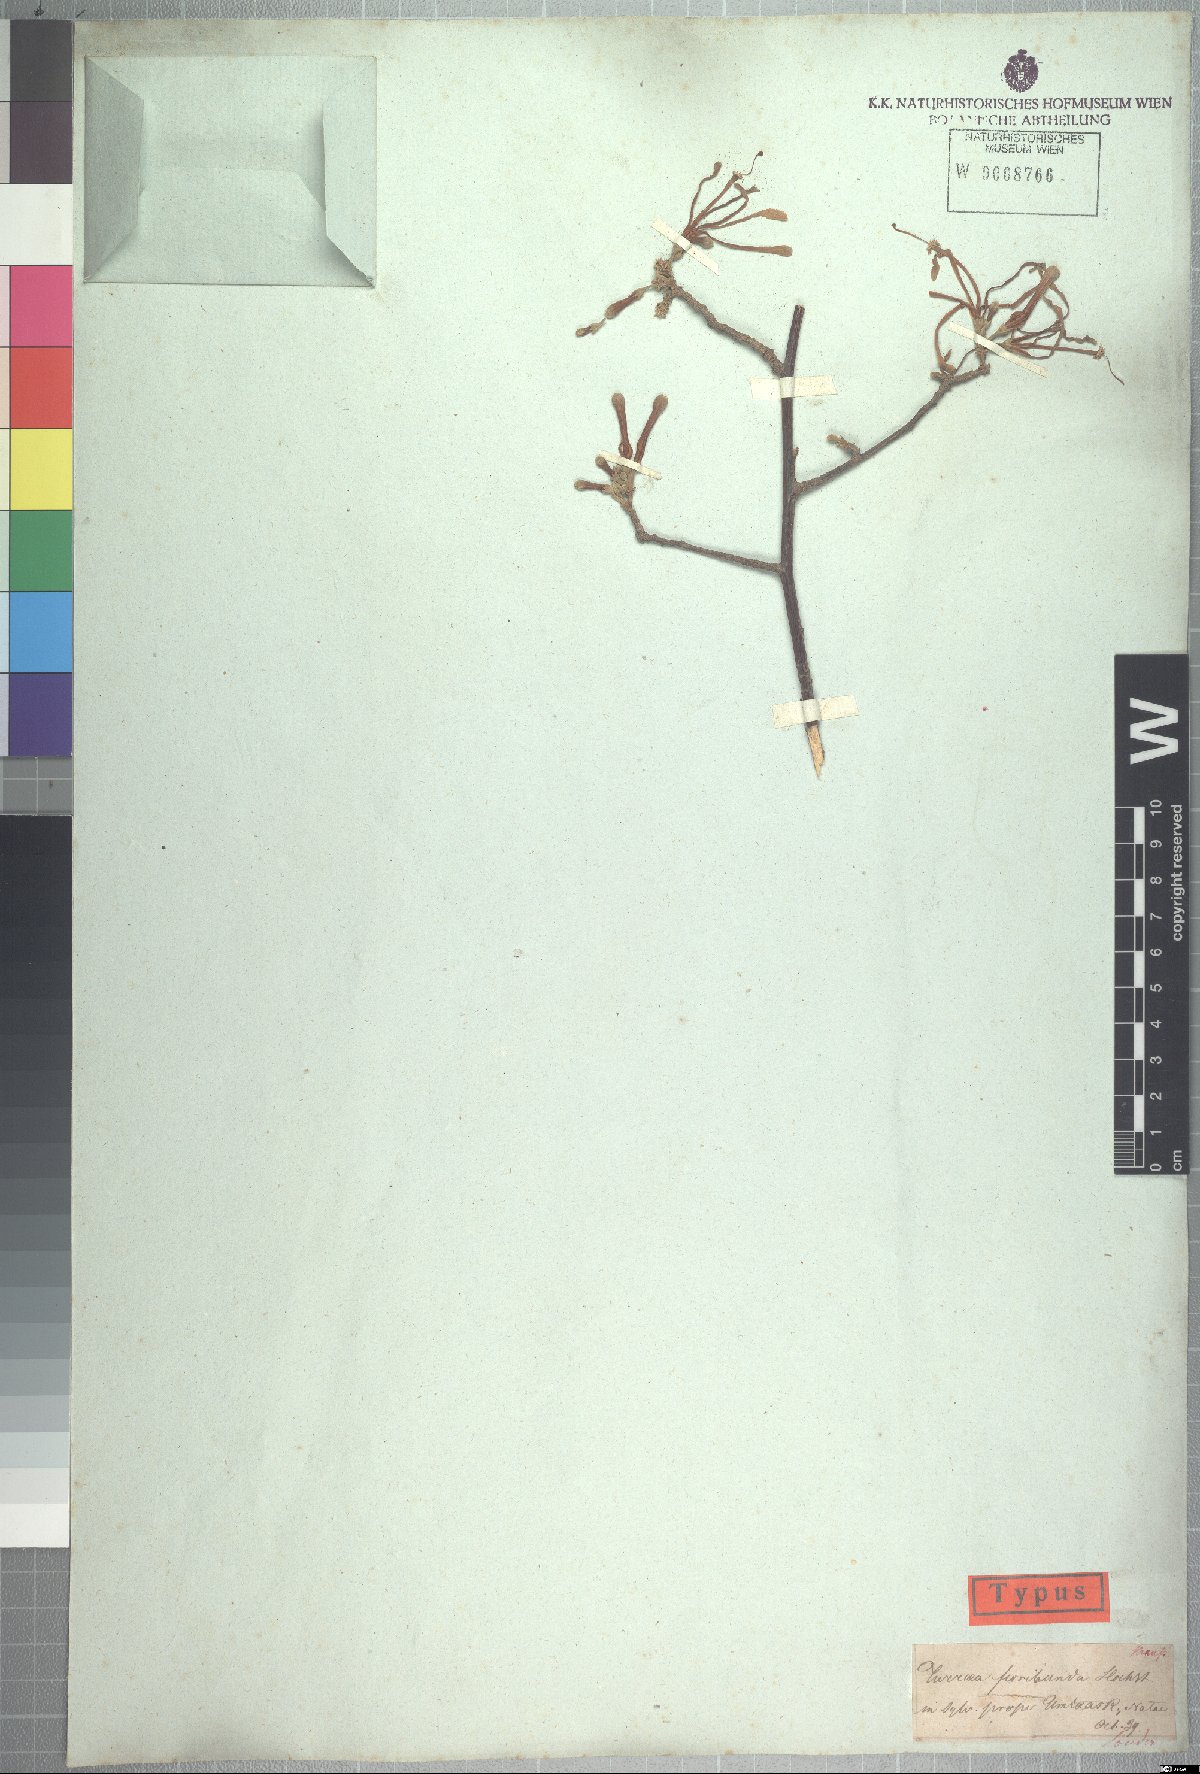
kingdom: Plantae
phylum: Tracheophyta
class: Magnoliopsida
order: Sapindales
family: Meliaceae
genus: Turraea
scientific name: Turraea floribunda
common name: Honeysuckle tree
